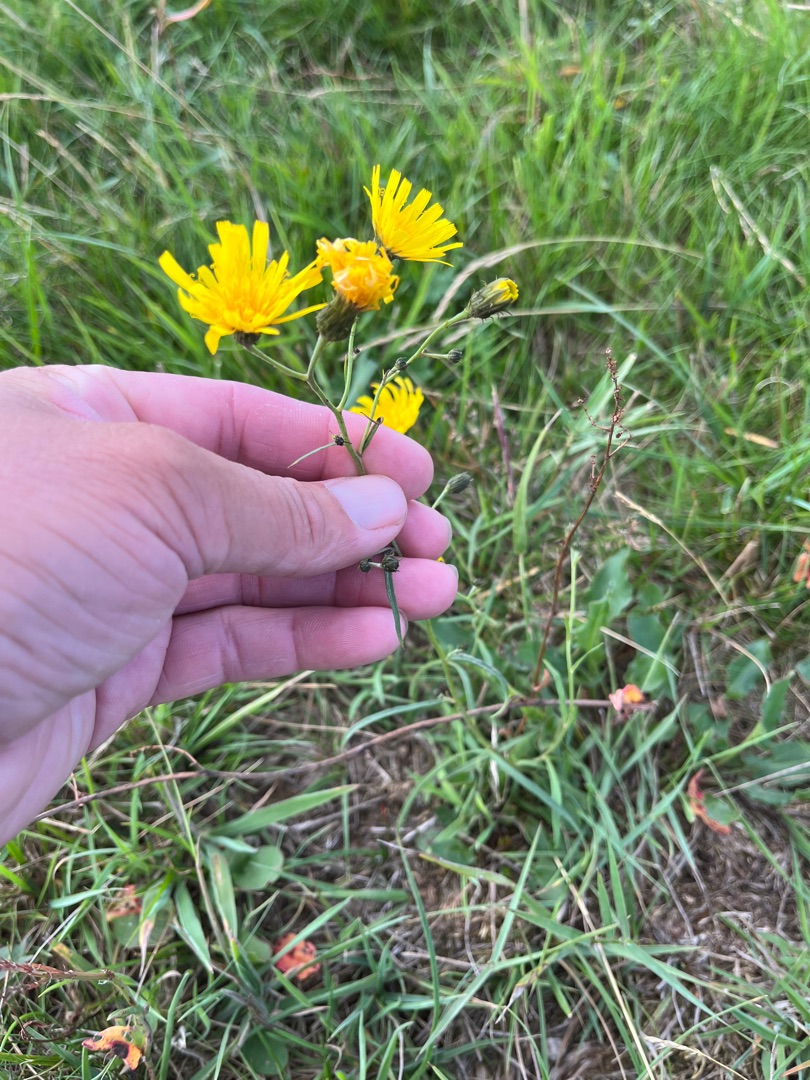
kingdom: Plantae
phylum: Tracheophyta
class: Magnoliopsida
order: Asterales
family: Asteraceae
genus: Hieracium
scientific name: Hieracium umbellatum
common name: Smalbladet høgeurt
